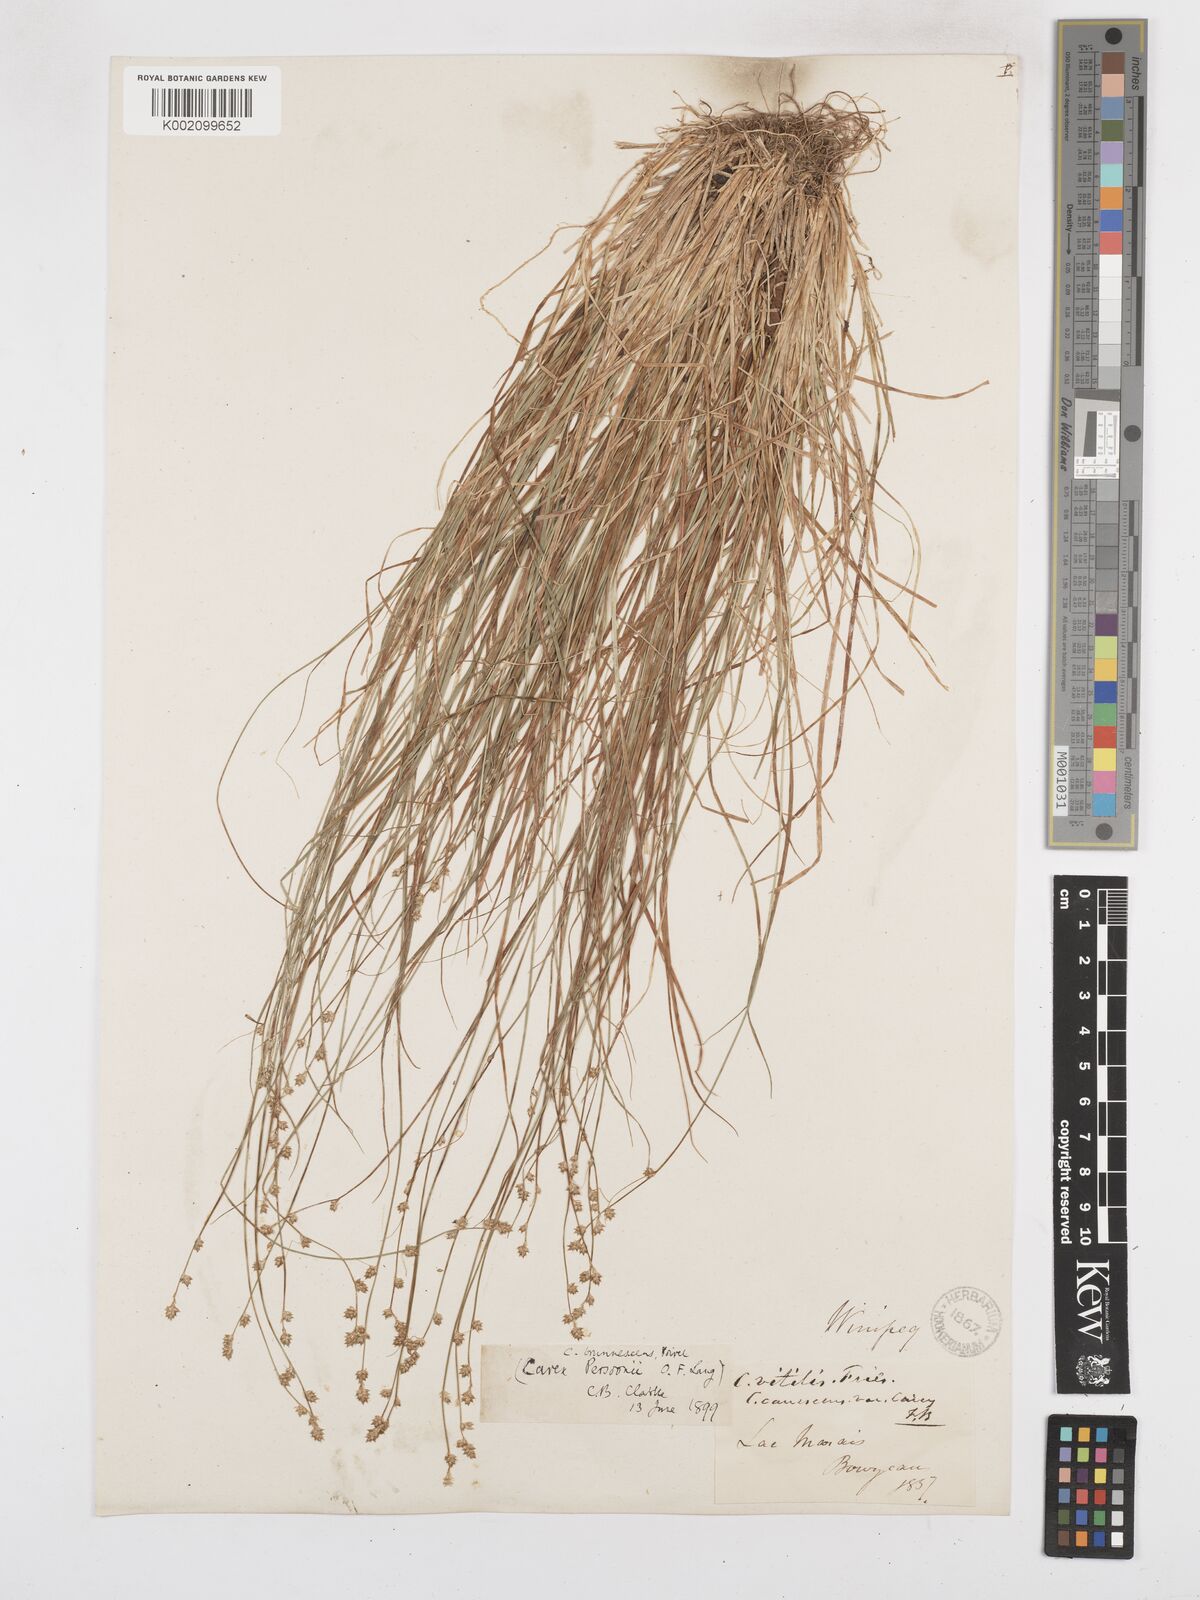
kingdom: Plantae
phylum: Tracheophyta
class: Liliopsida
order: Poales
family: Cyperaceae
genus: Carex
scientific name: Carex brunnescens
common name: Brown sedge
